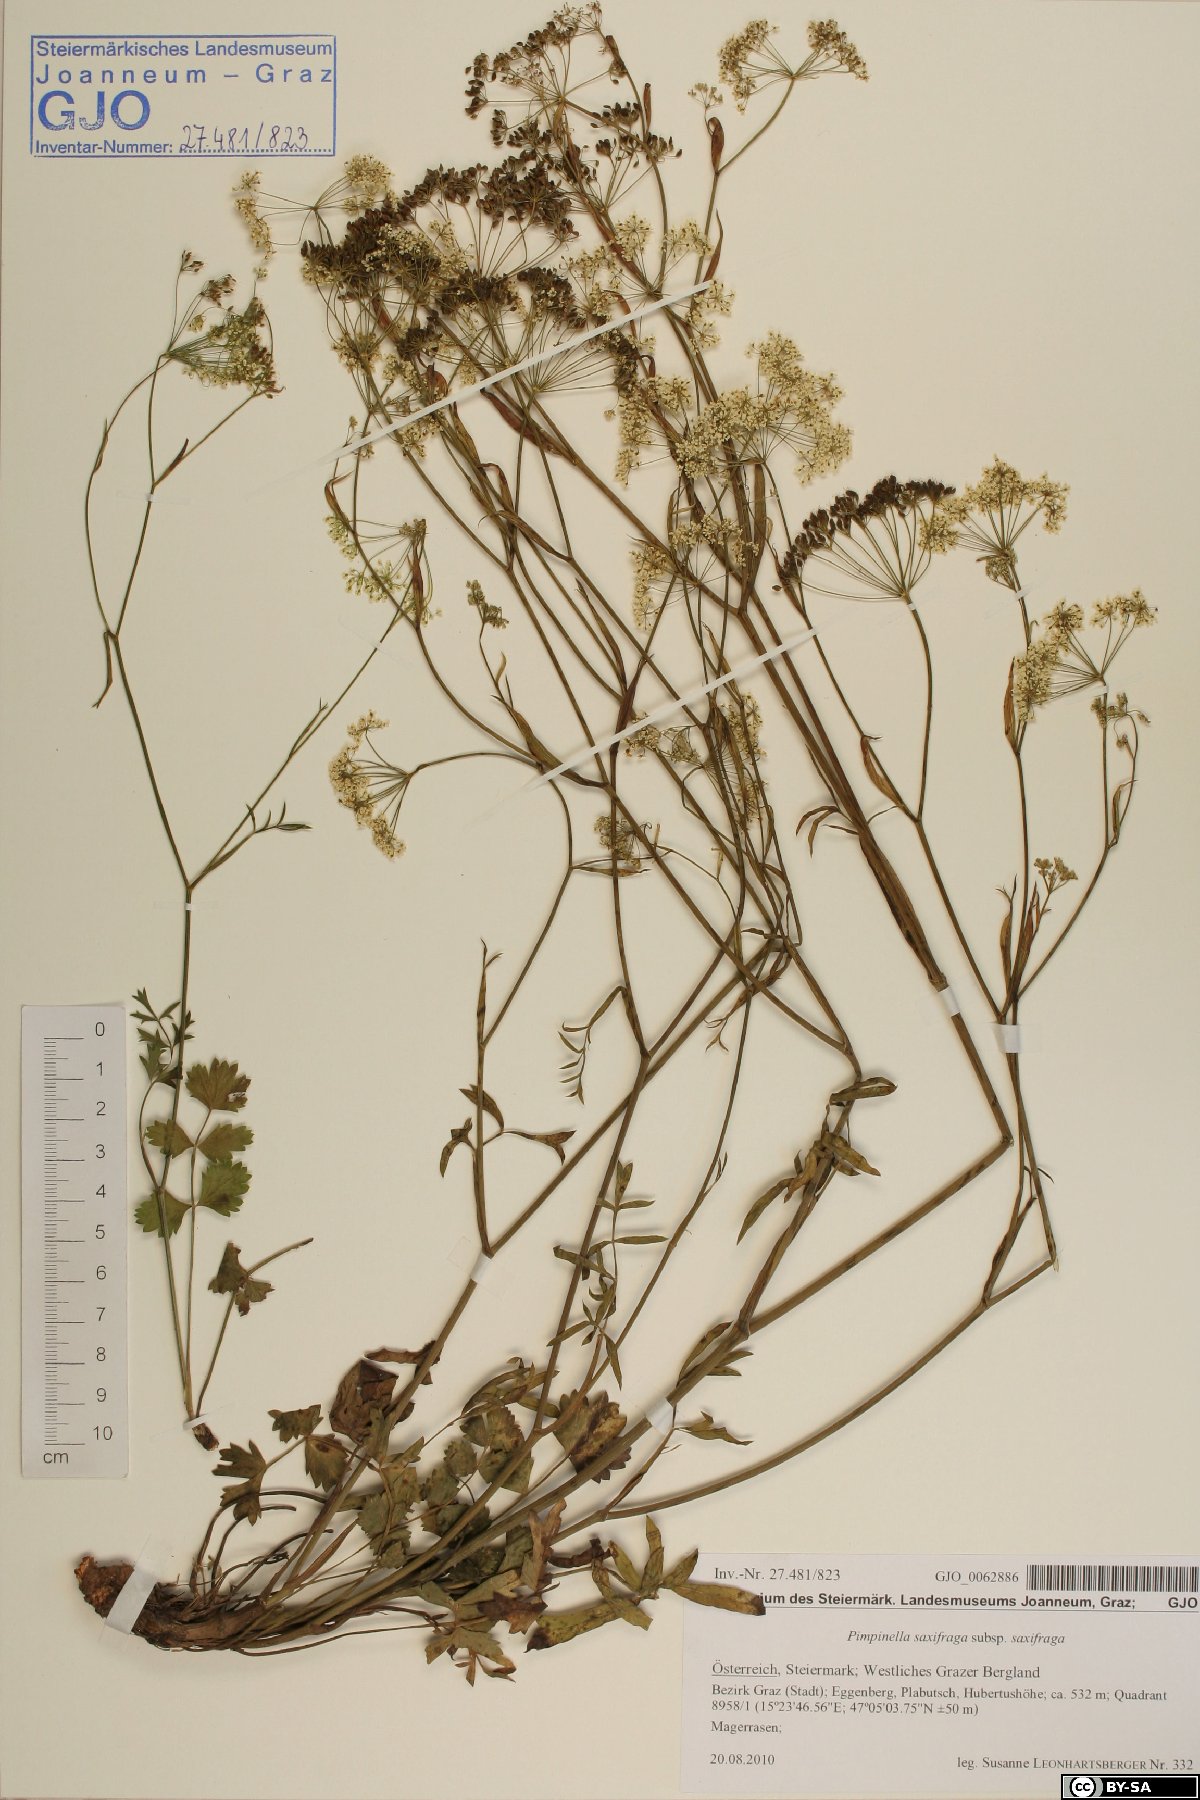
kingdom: Plantae
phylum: Tracheophyta
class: Magnoliopsida
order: Apiales
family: Apiaceae
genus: Pimpinella
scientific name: Pimpinella saxifraga
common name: Burnet-saxifrage
